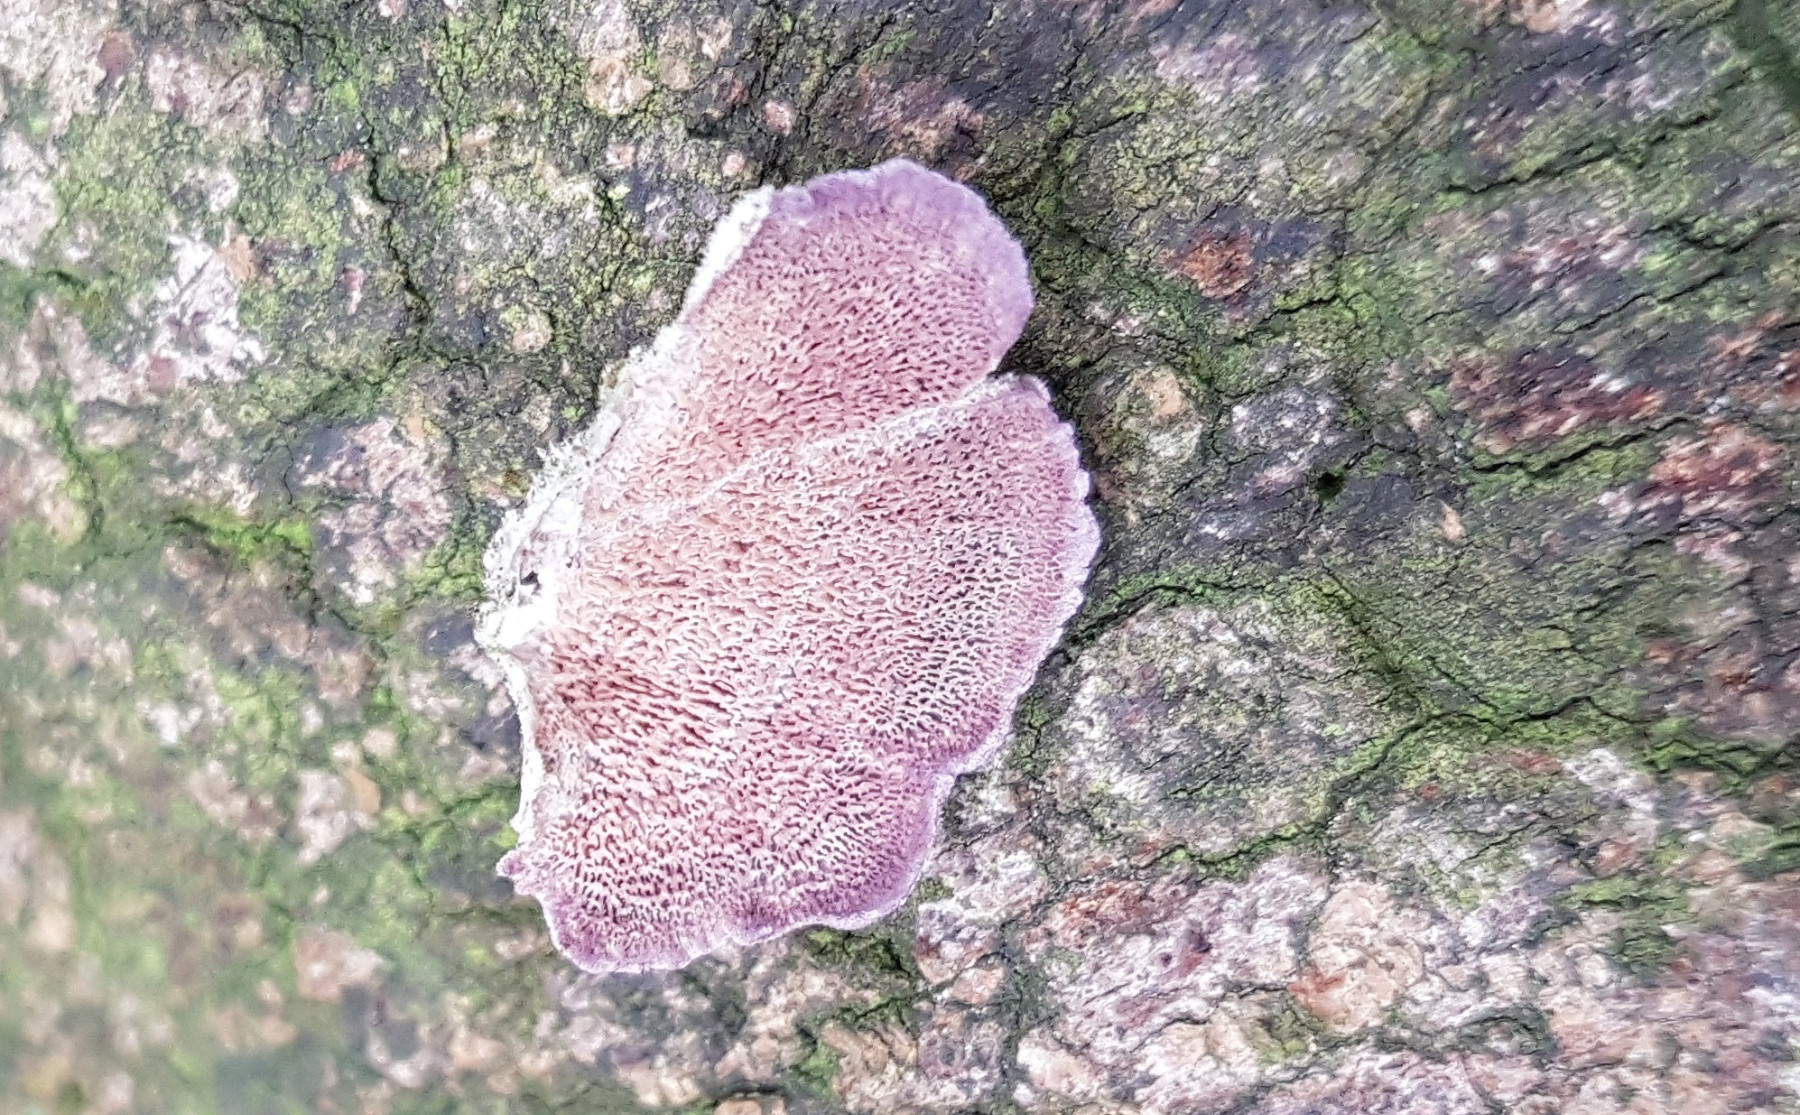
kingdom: Fungi
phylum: Basidiomycota
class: Agaricomycetes
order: Hymenochaetales
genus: Trichaptum
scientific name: Trichaptum abietinum
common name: almindelig violporesvamp
